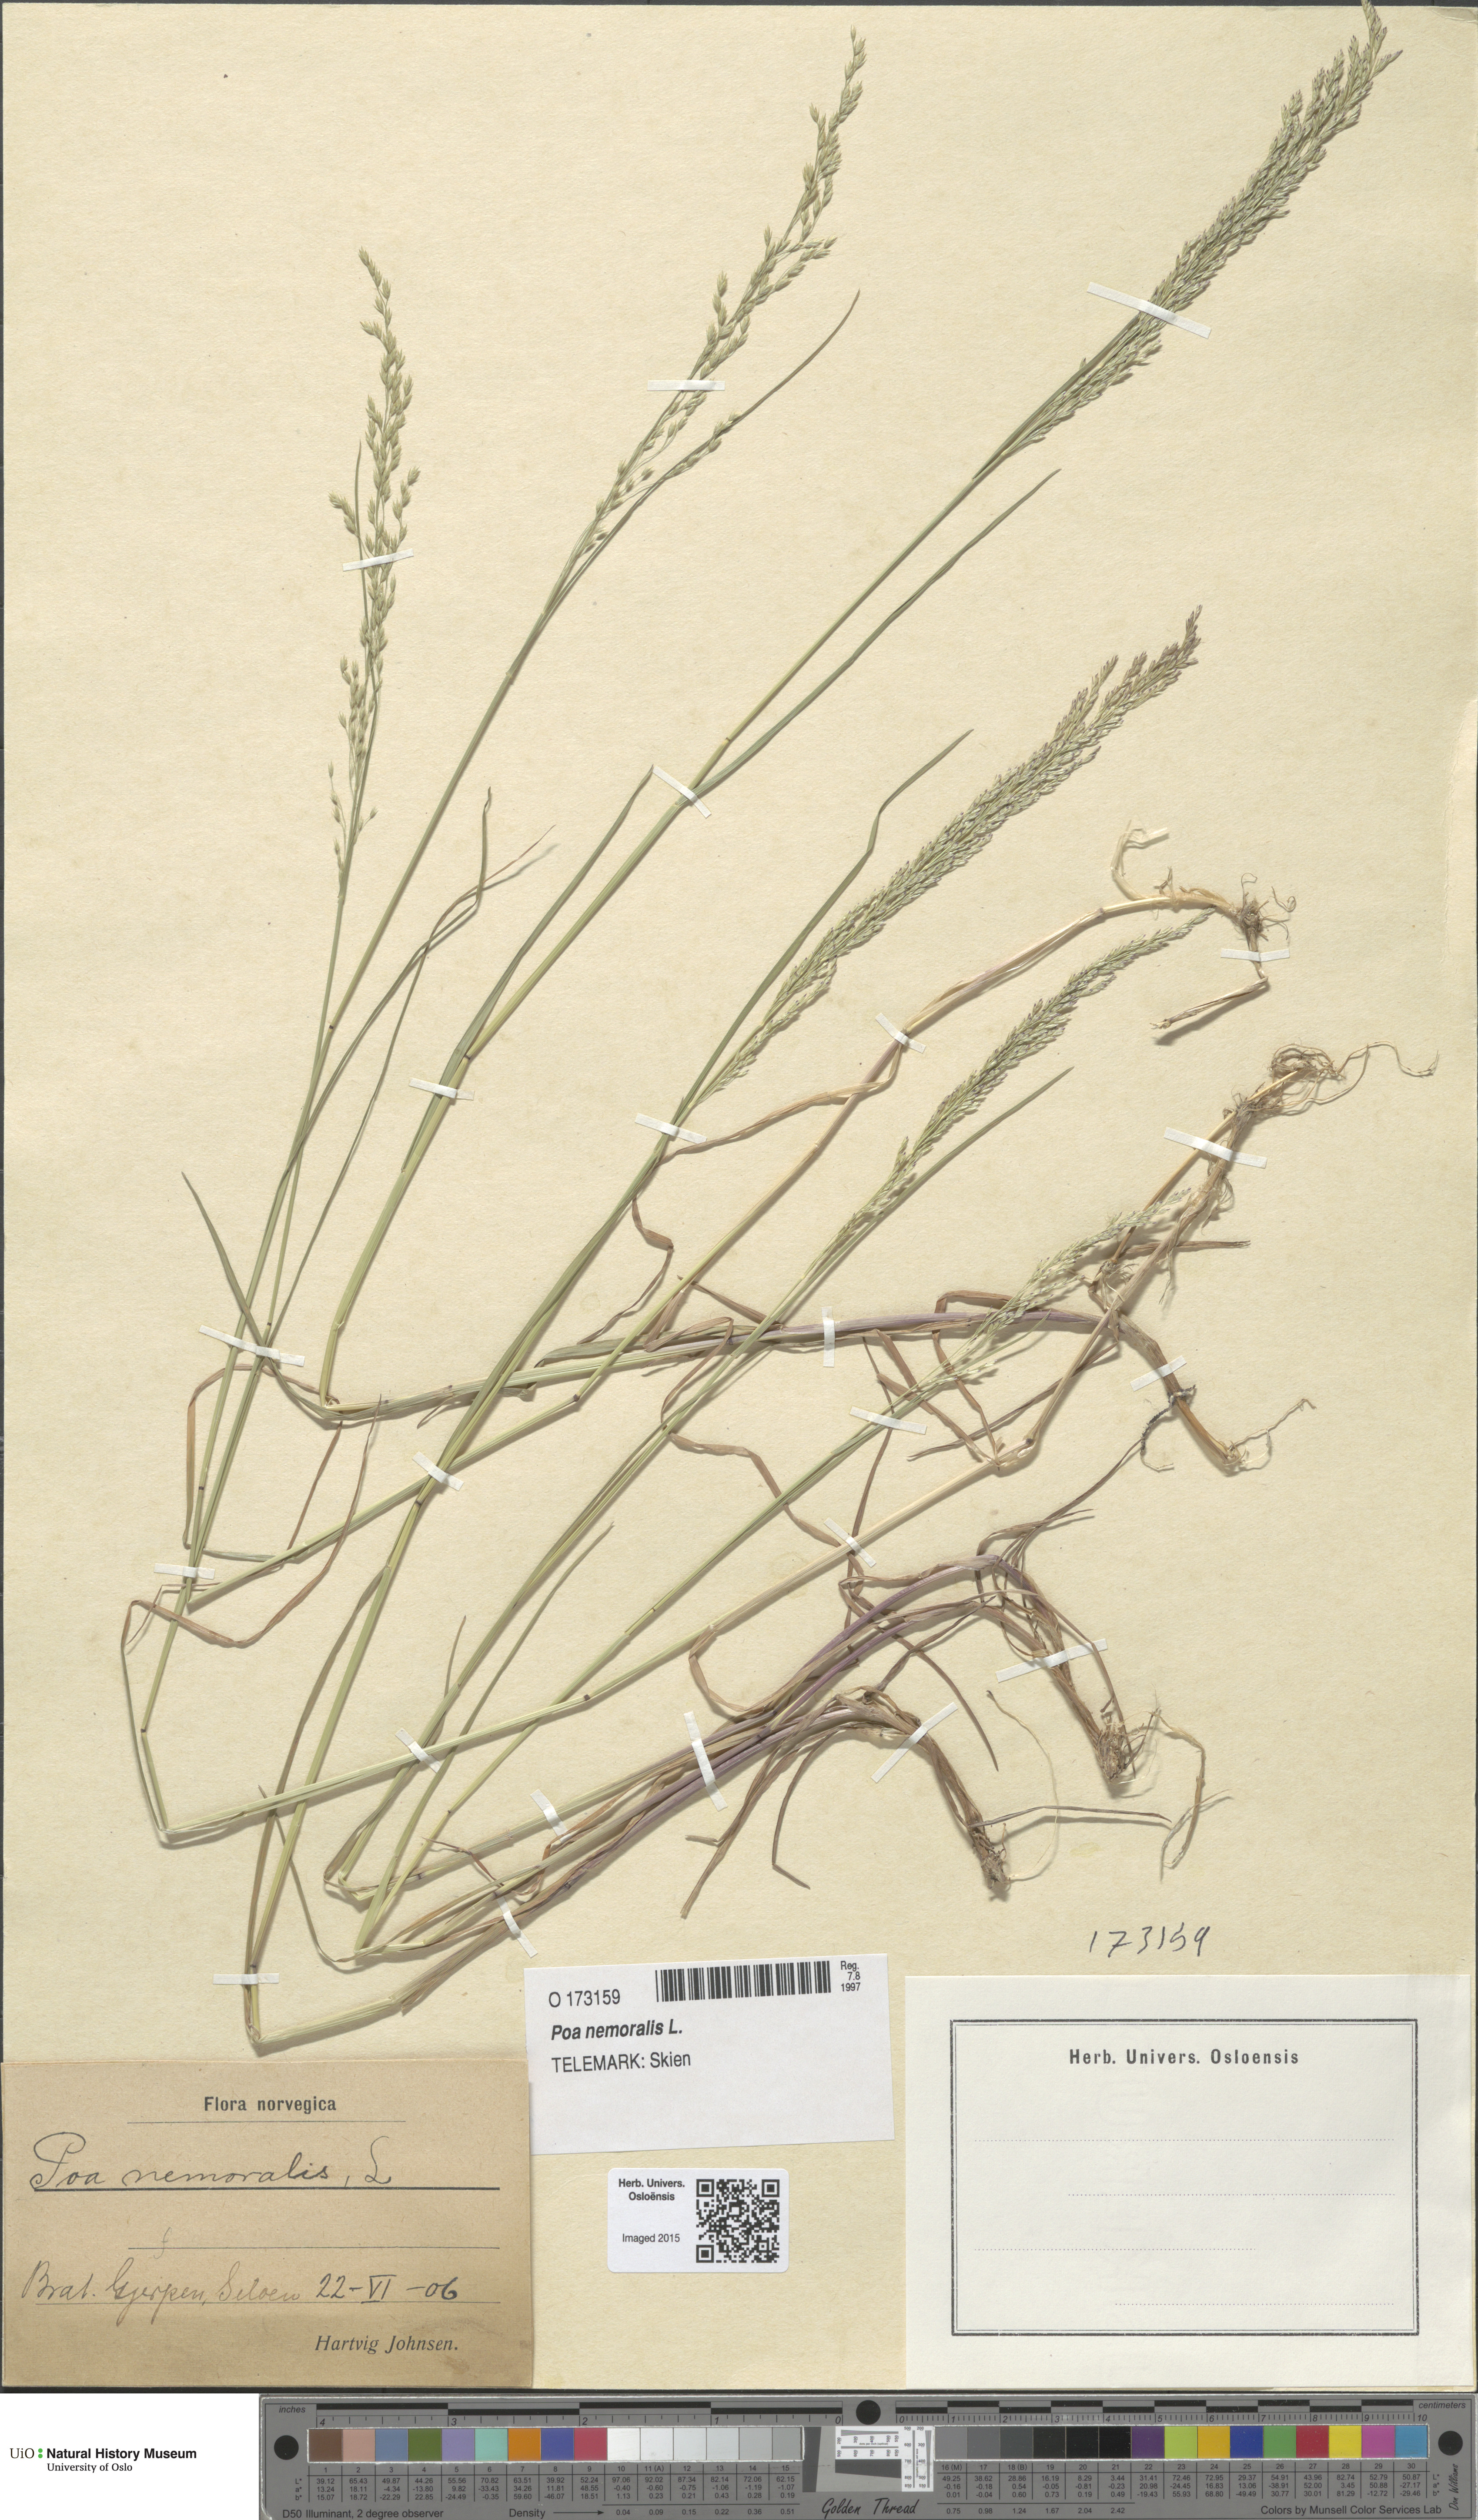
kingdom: Plantae
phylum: Tracheophyta
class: Liliopsida
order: Poales
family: Poaceae
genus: Poa
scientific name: Poa nemoralis
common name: Wood bluegrass
